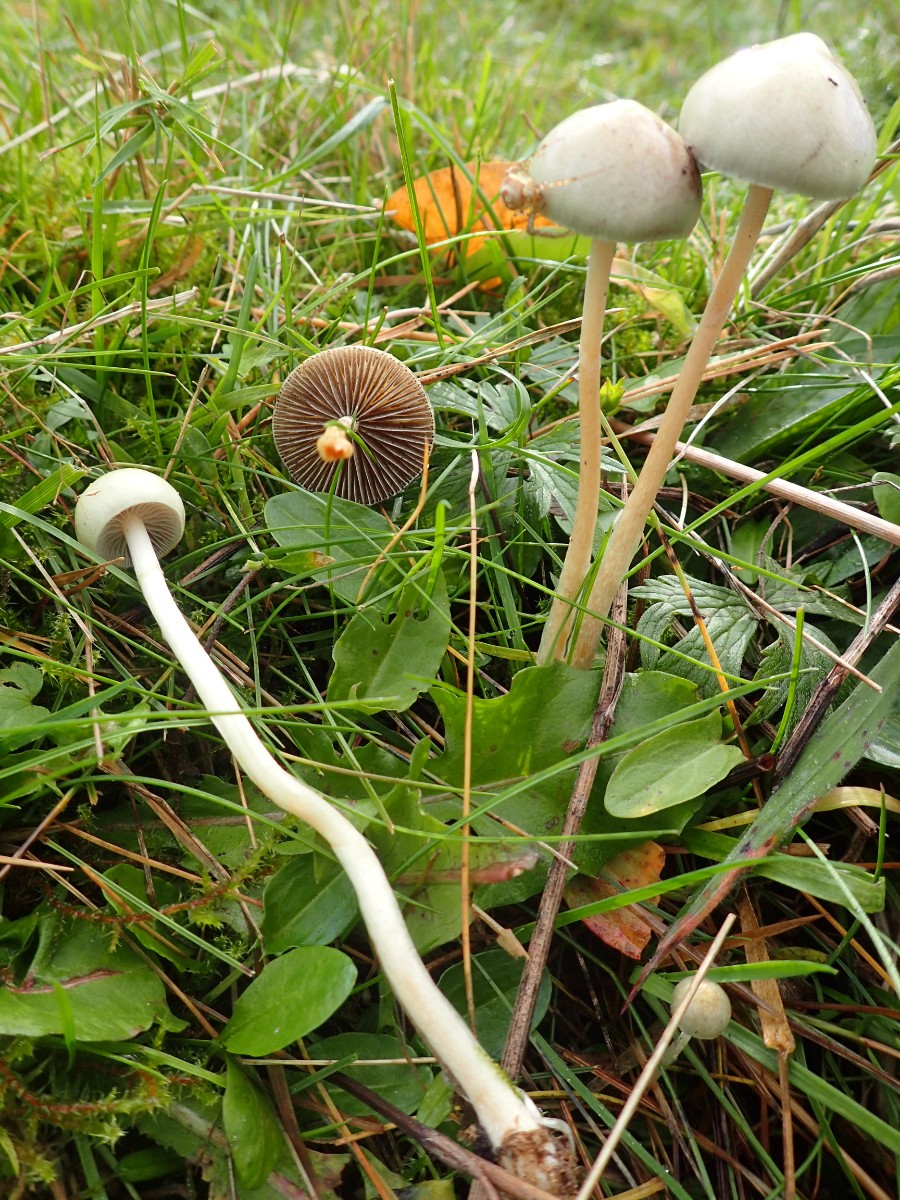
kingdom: Fungi
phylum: Basidiomycota
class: Agaricomycetes
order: Agaricales
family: Strophariaceae
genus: Protostropharia
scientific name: Protostropharia semiglobata
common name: halvkugleformet bredblad
